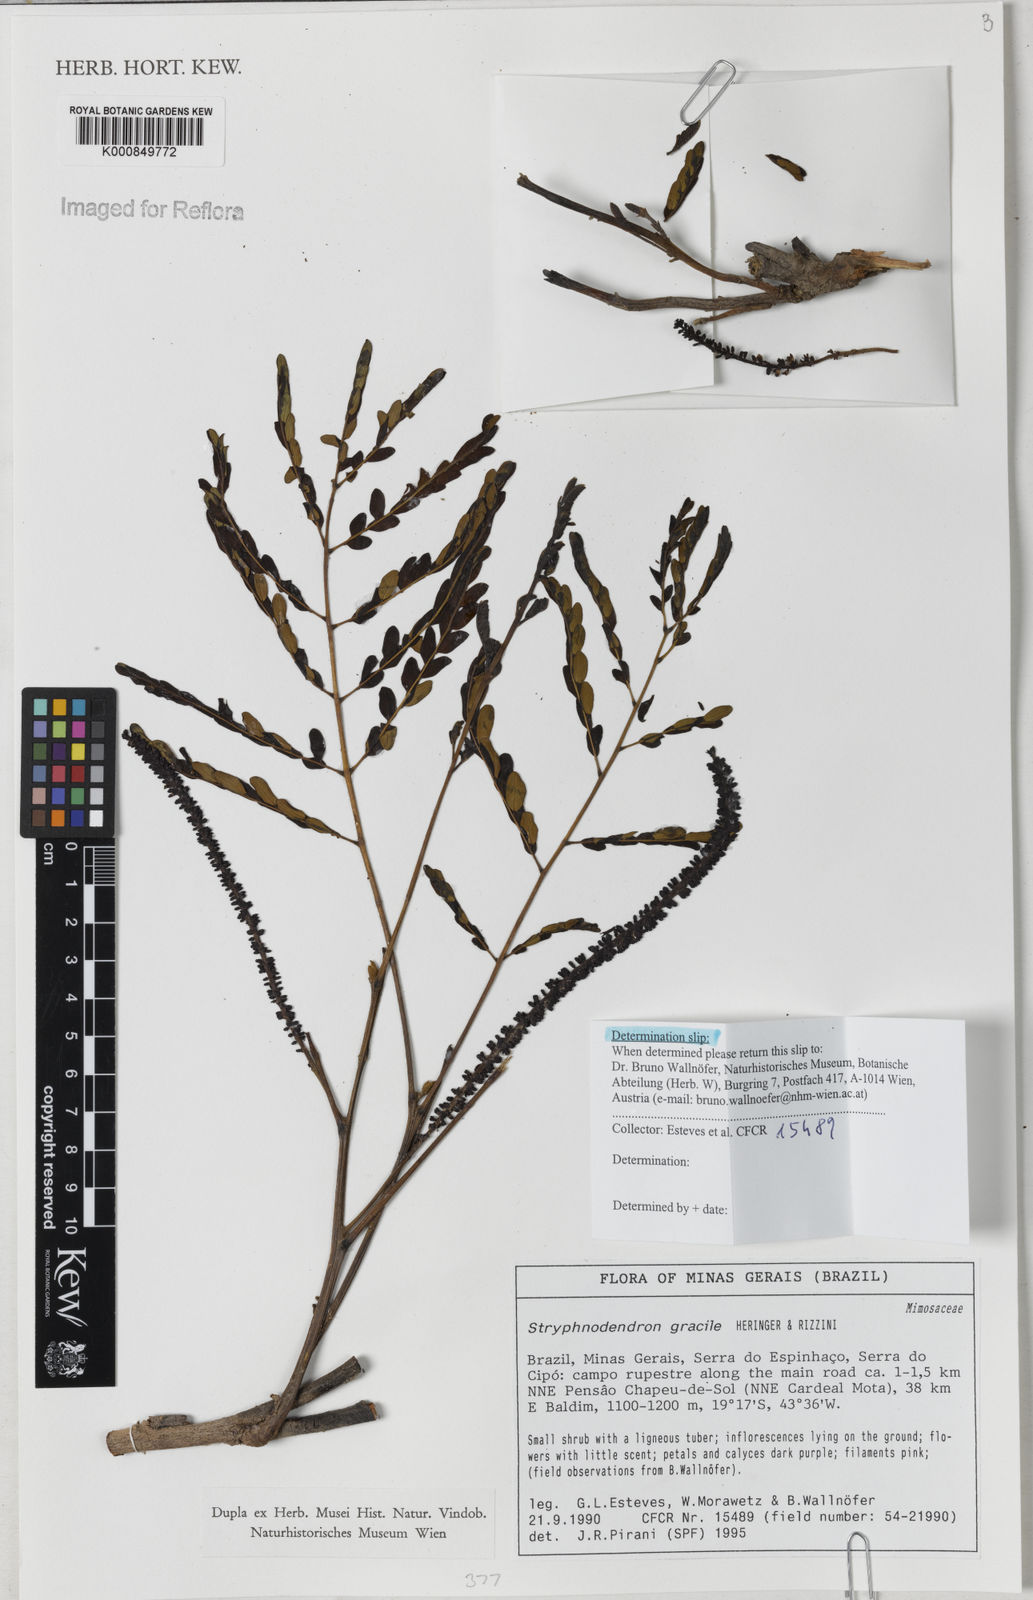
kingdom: Plantae
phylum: Tracheophyta
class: Magnoliopsida
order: Fabales
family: Fabaceae
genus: Stryphnodendron
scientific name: Stryphnodendron gracile
